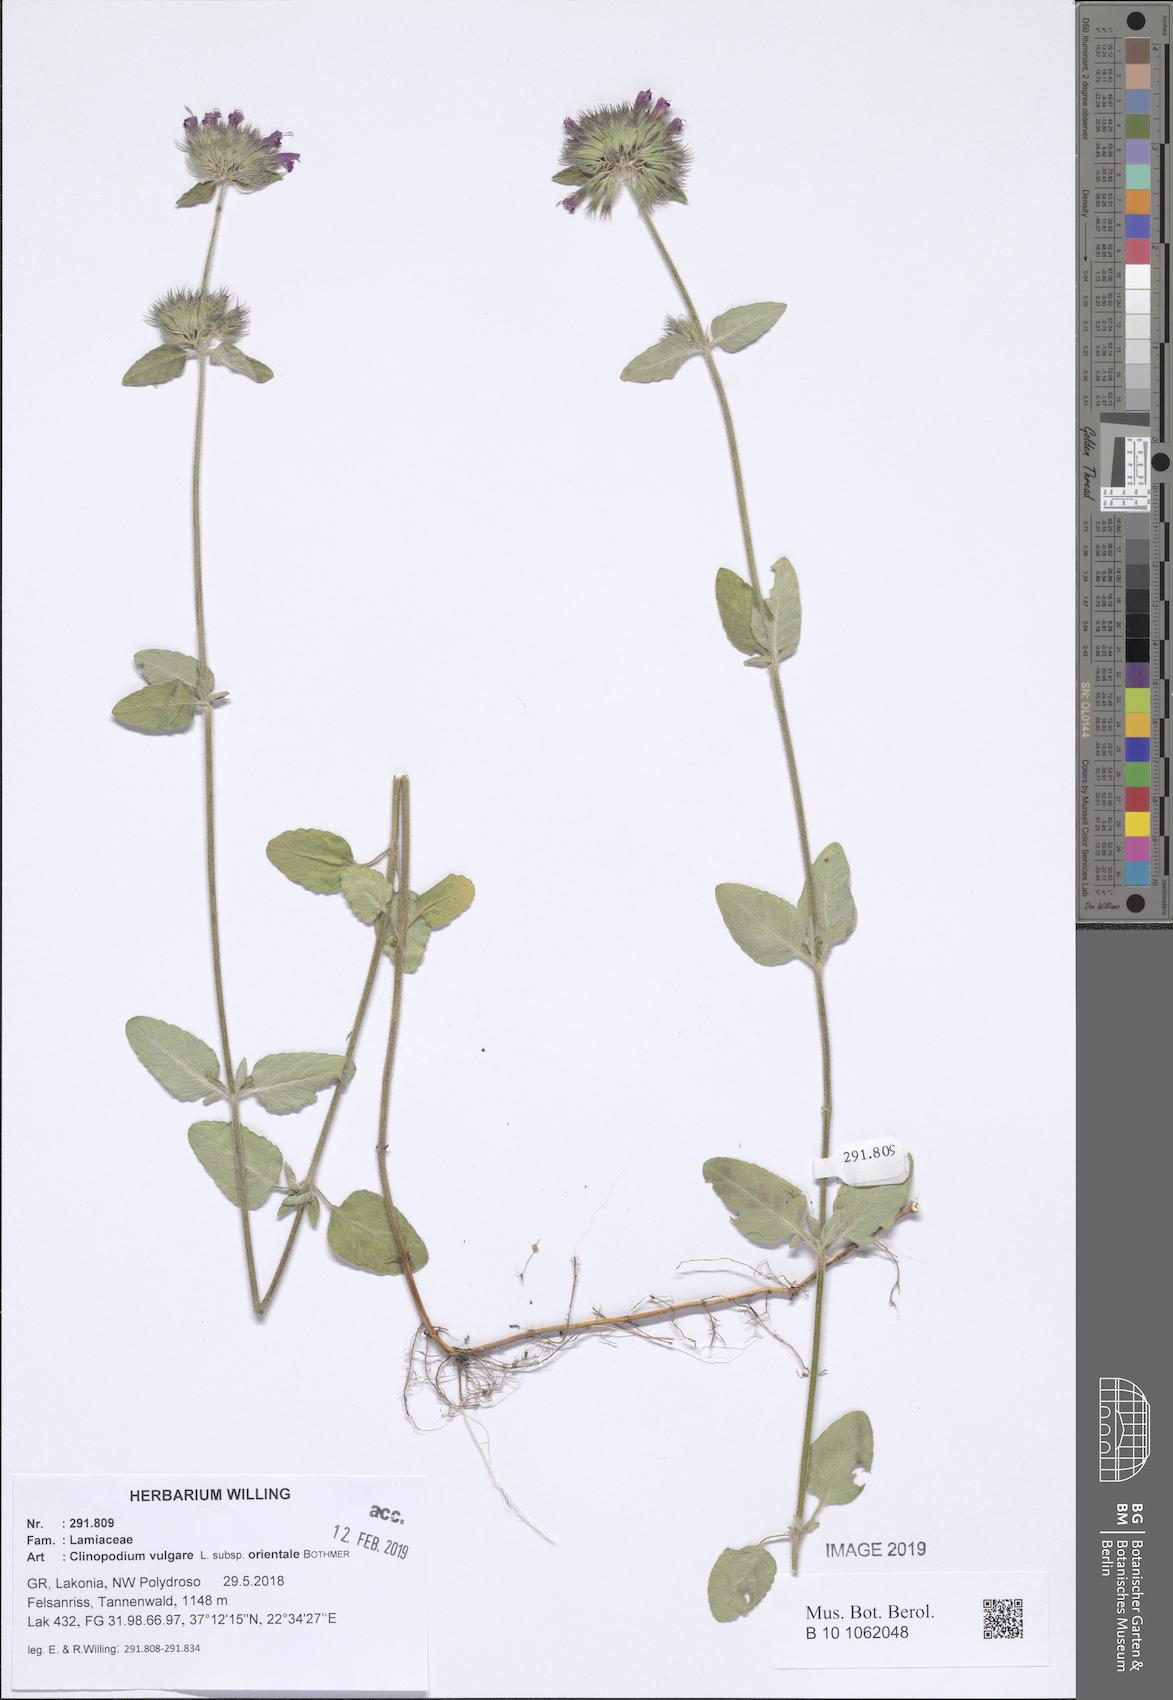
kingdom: Plantae
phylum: Tracheophyta
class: Magnoliopsida
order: Lamiales
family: Lamiaceae
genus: Clinopodium
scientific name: Clinopodium vulgare
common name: Wild basil
